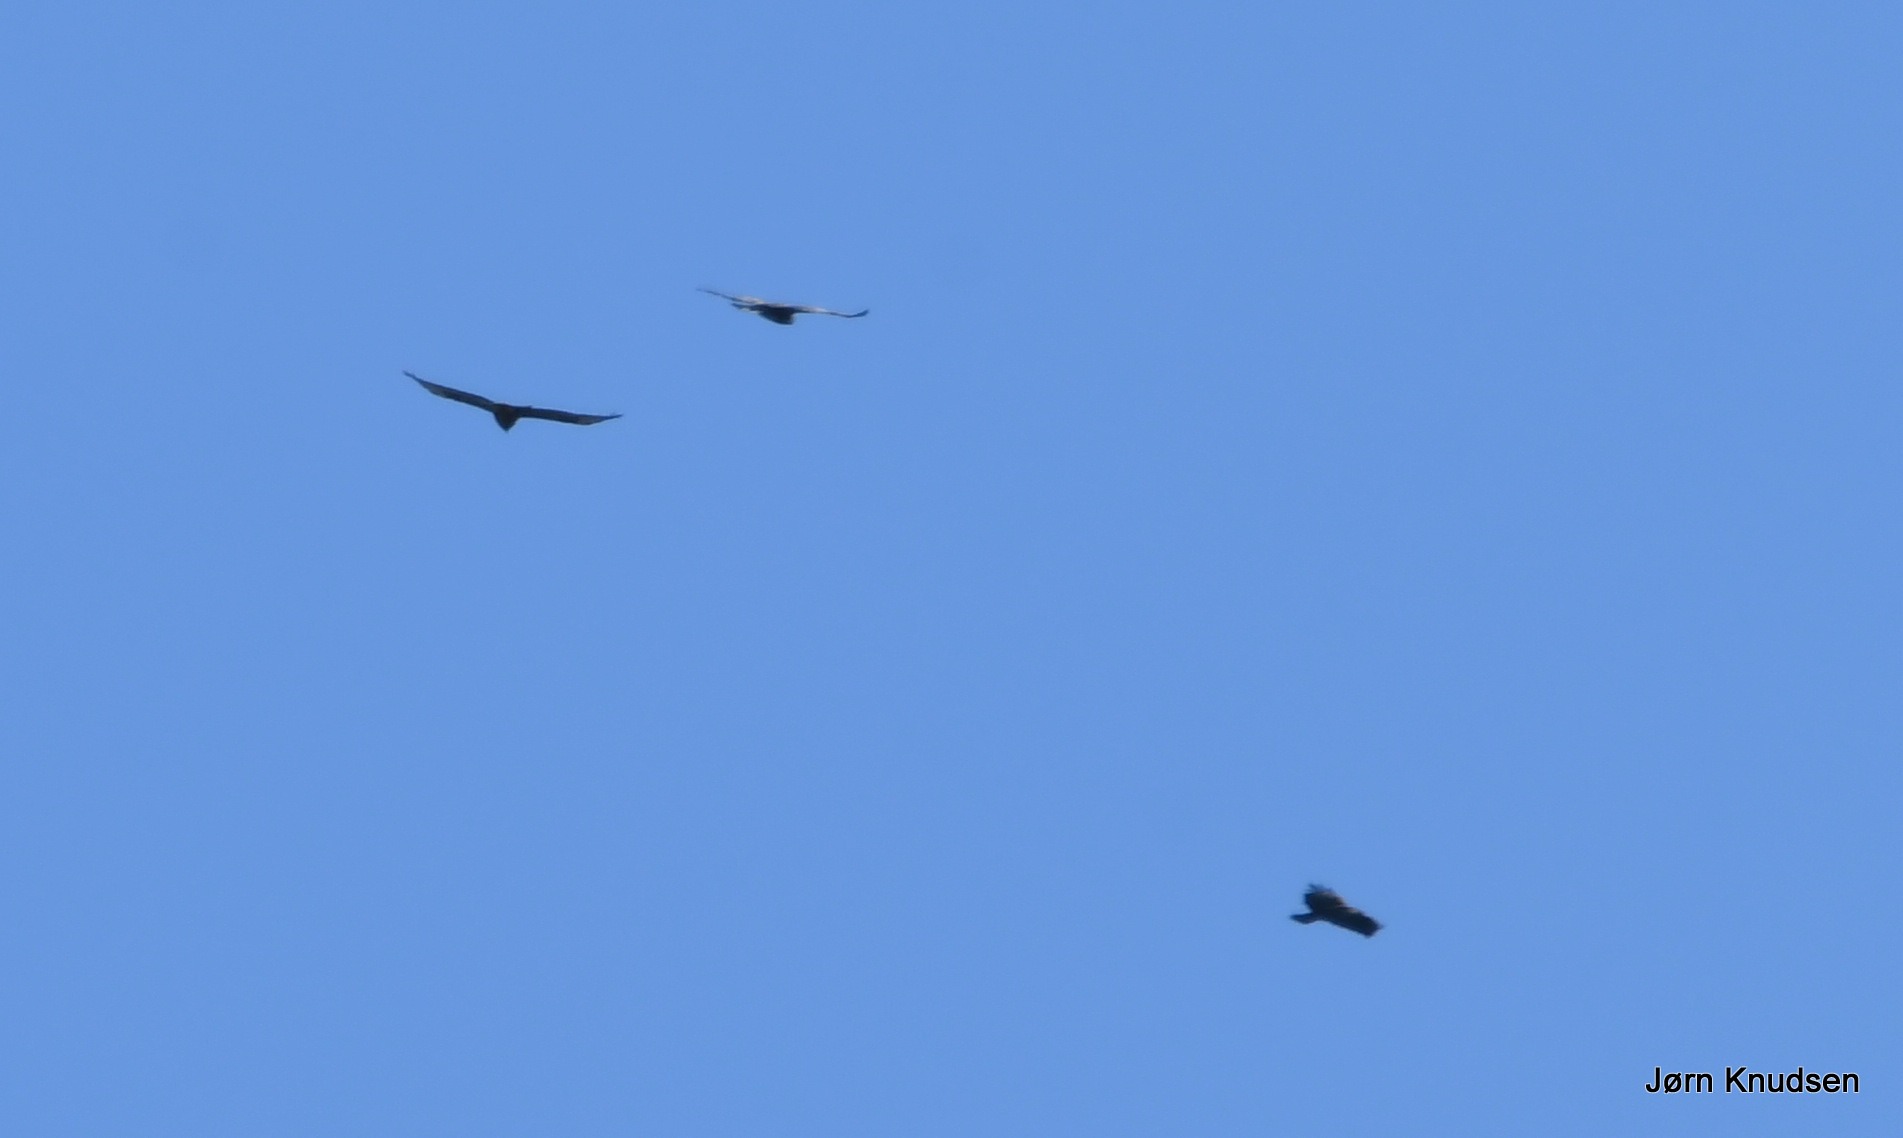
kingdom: Animalia
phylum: Chordata
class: Aves
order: Accipitriformes
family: Accipitridae
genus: Buteo
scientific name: Buteo buteo
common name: Musvåge
